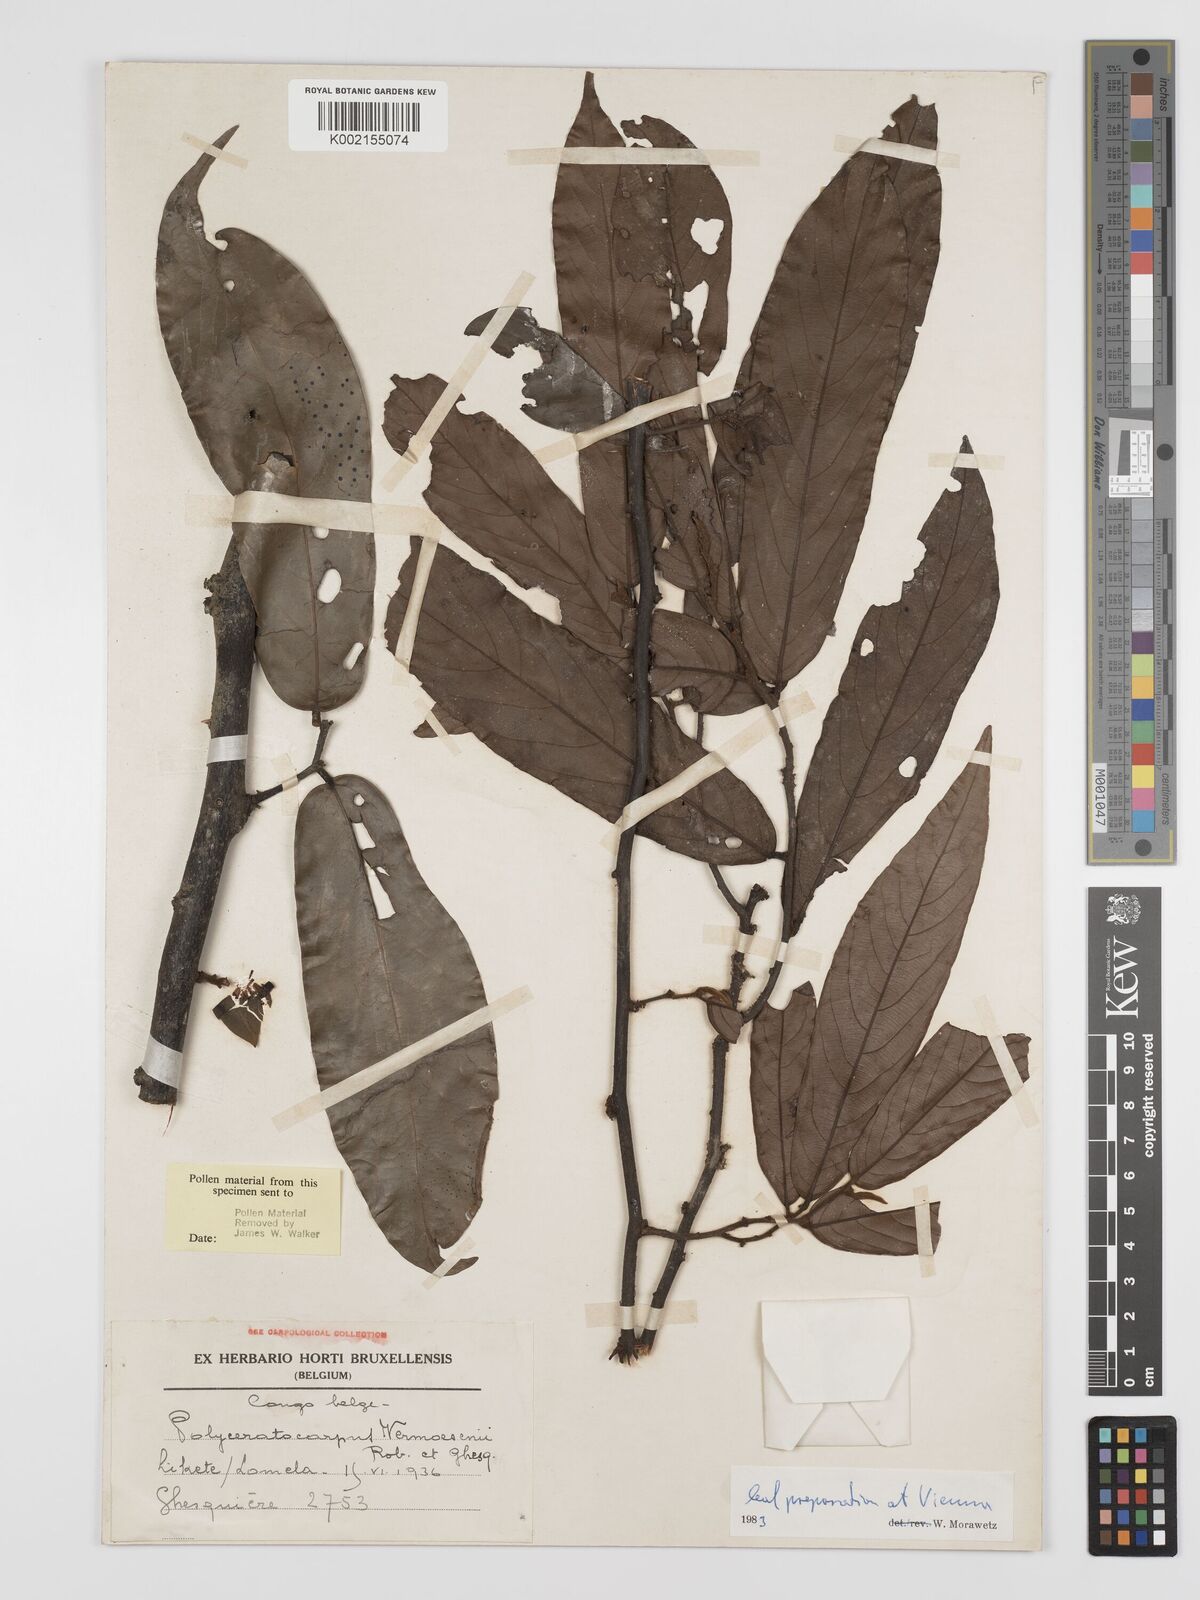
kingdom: Plantae
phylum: Tracheophyta
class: Magnoliopsida
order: Magnoliales
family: Annonaceae
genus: Polyceratocarpus
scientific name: Polyceratocarpus gossweileri
